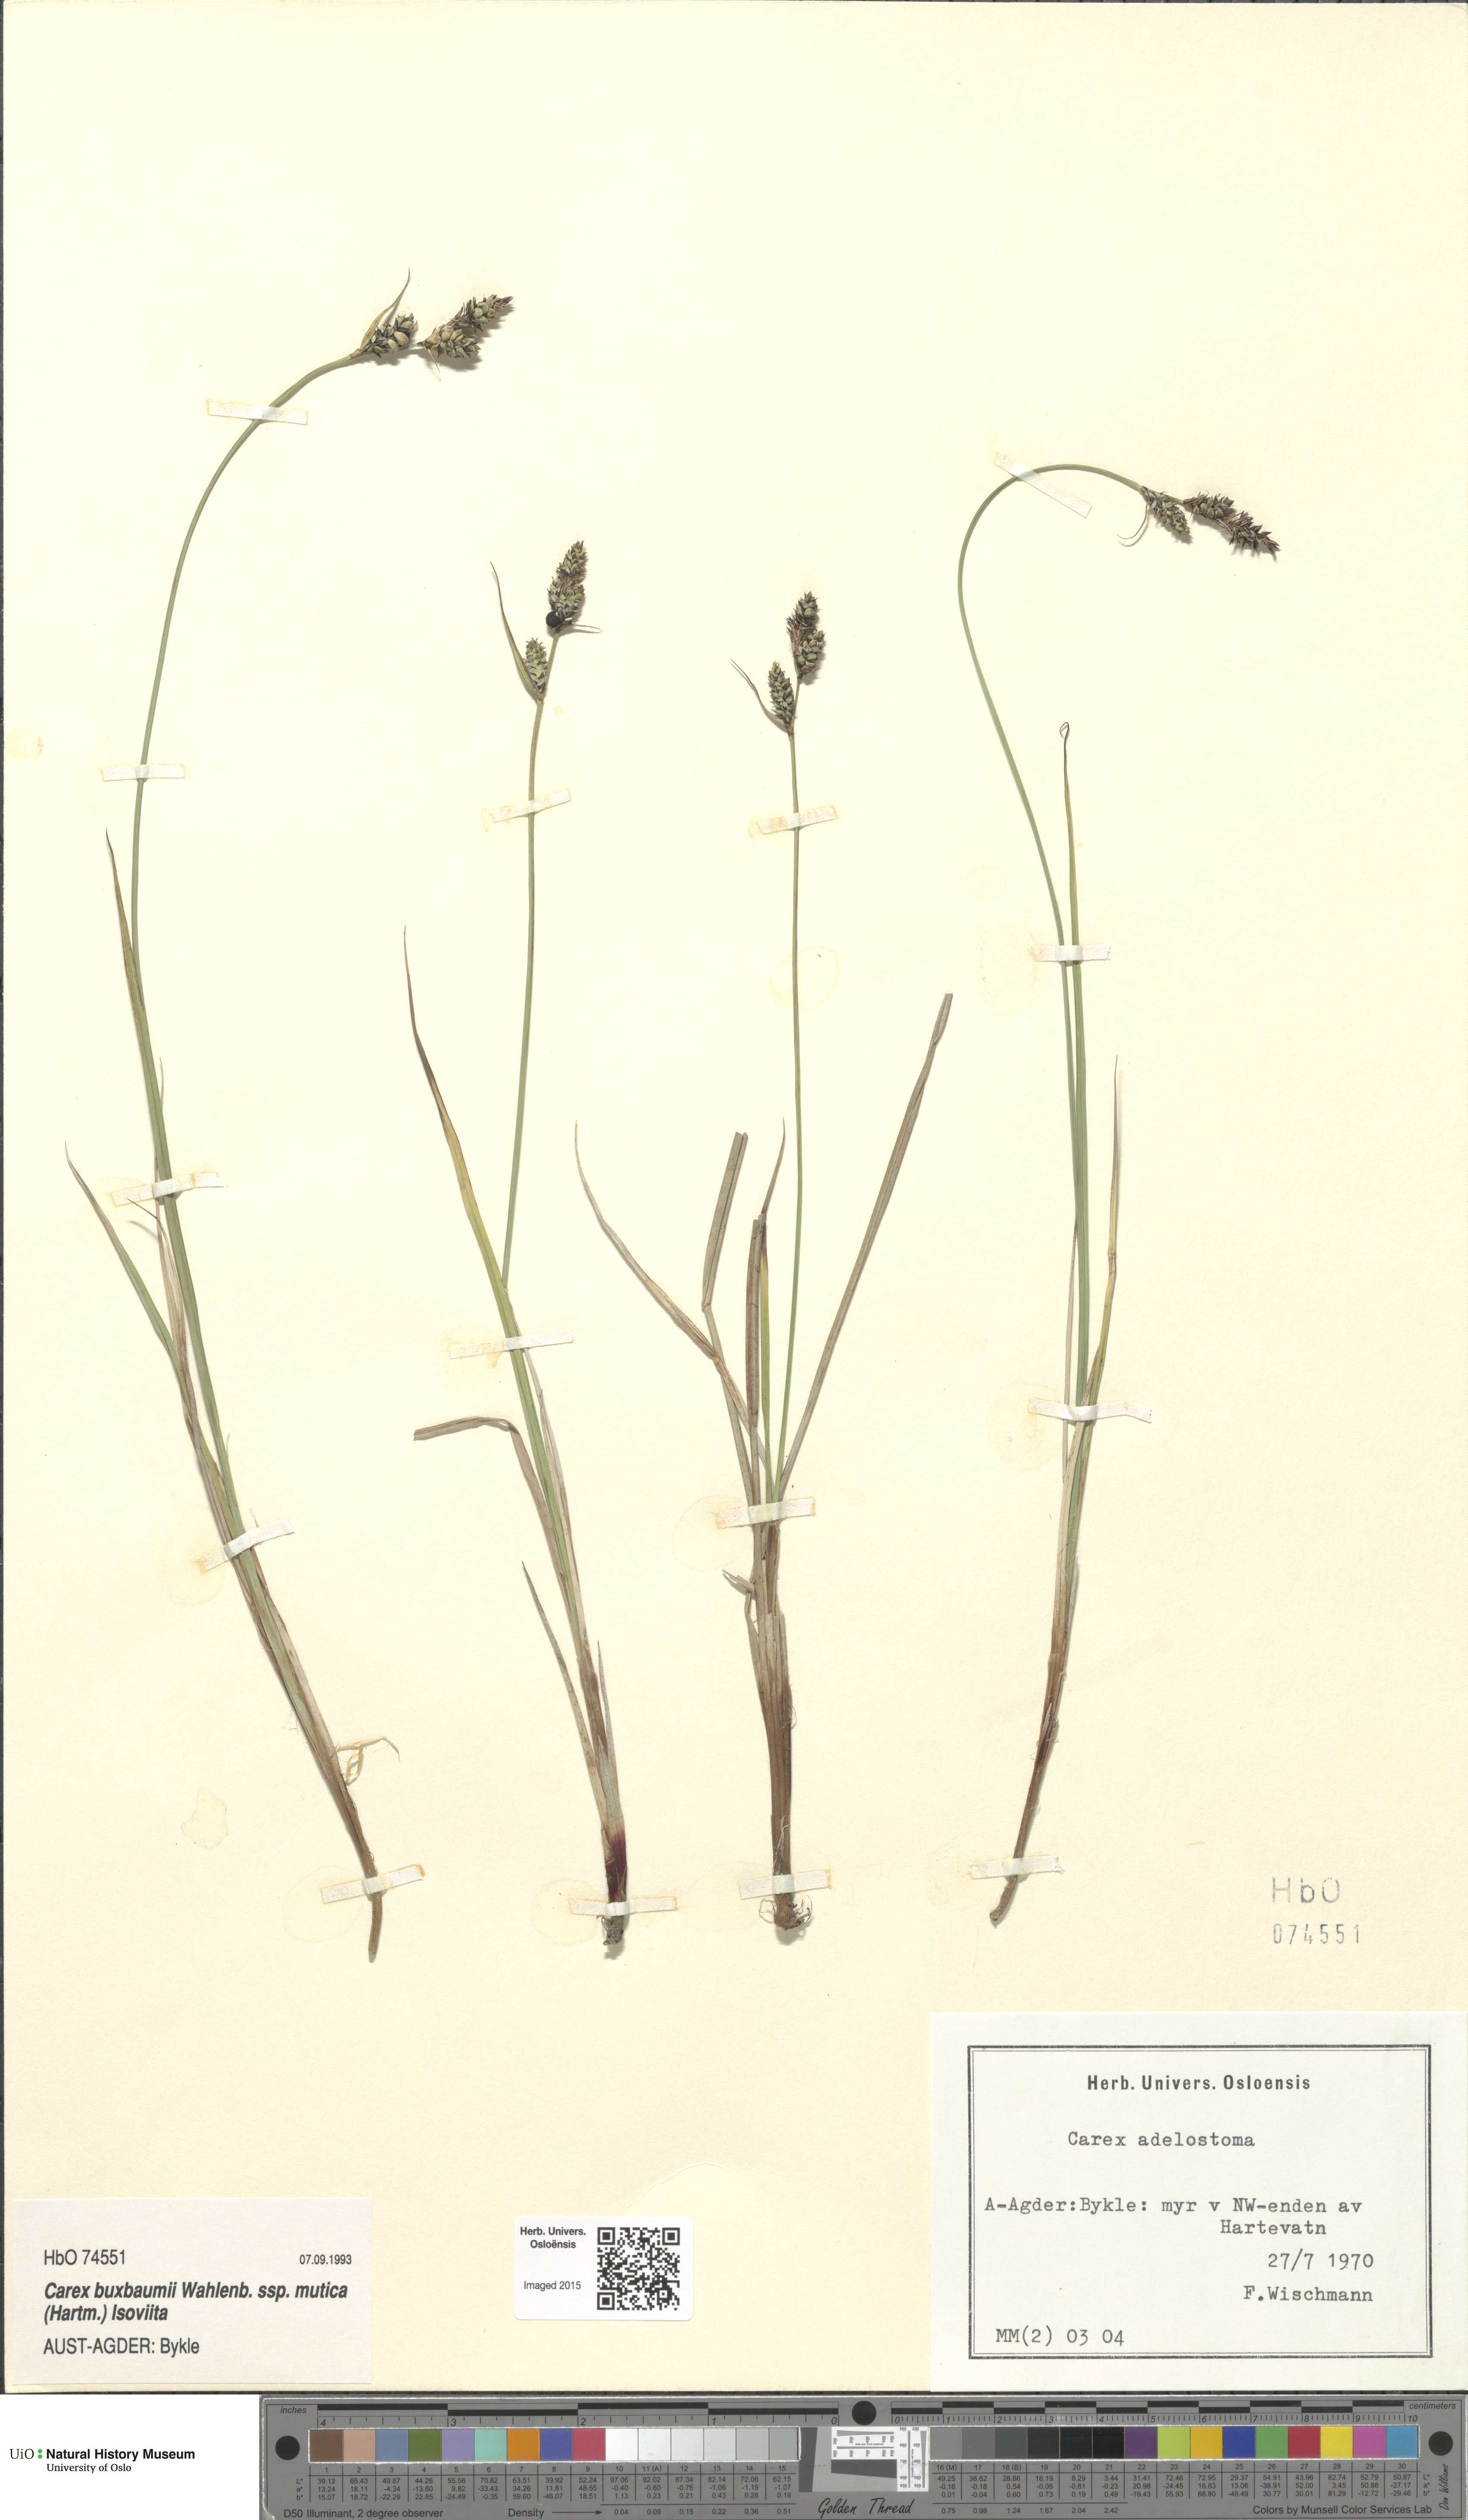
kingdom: Plantae
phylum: Tracheophyta
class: Liliopsida
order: Poales
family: Cyperaceae
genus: Carex
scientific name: Carex adelostoma
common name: Circumpolar sedge
